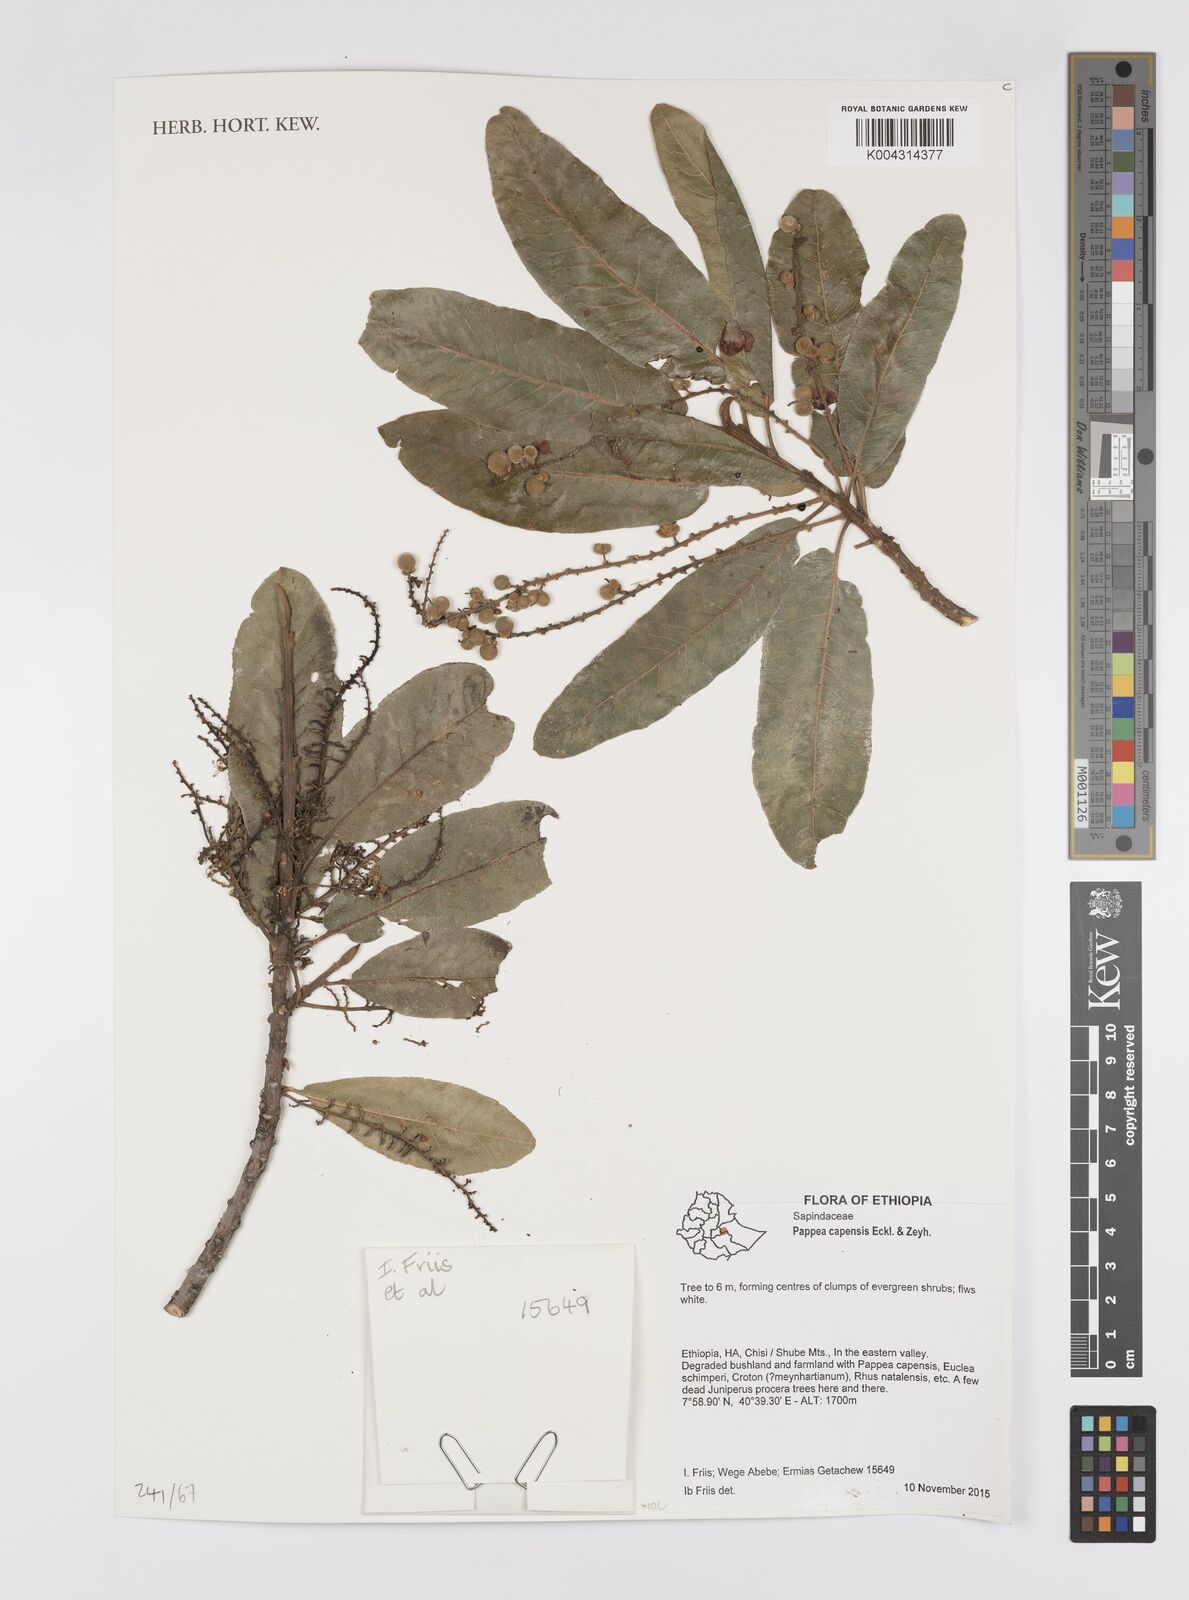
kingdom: Plantae
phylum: Tracheophyta
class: Magnoliopsida
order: Sapindales
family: Sapindaceae
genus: Pappea
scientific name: Pappea capensis
